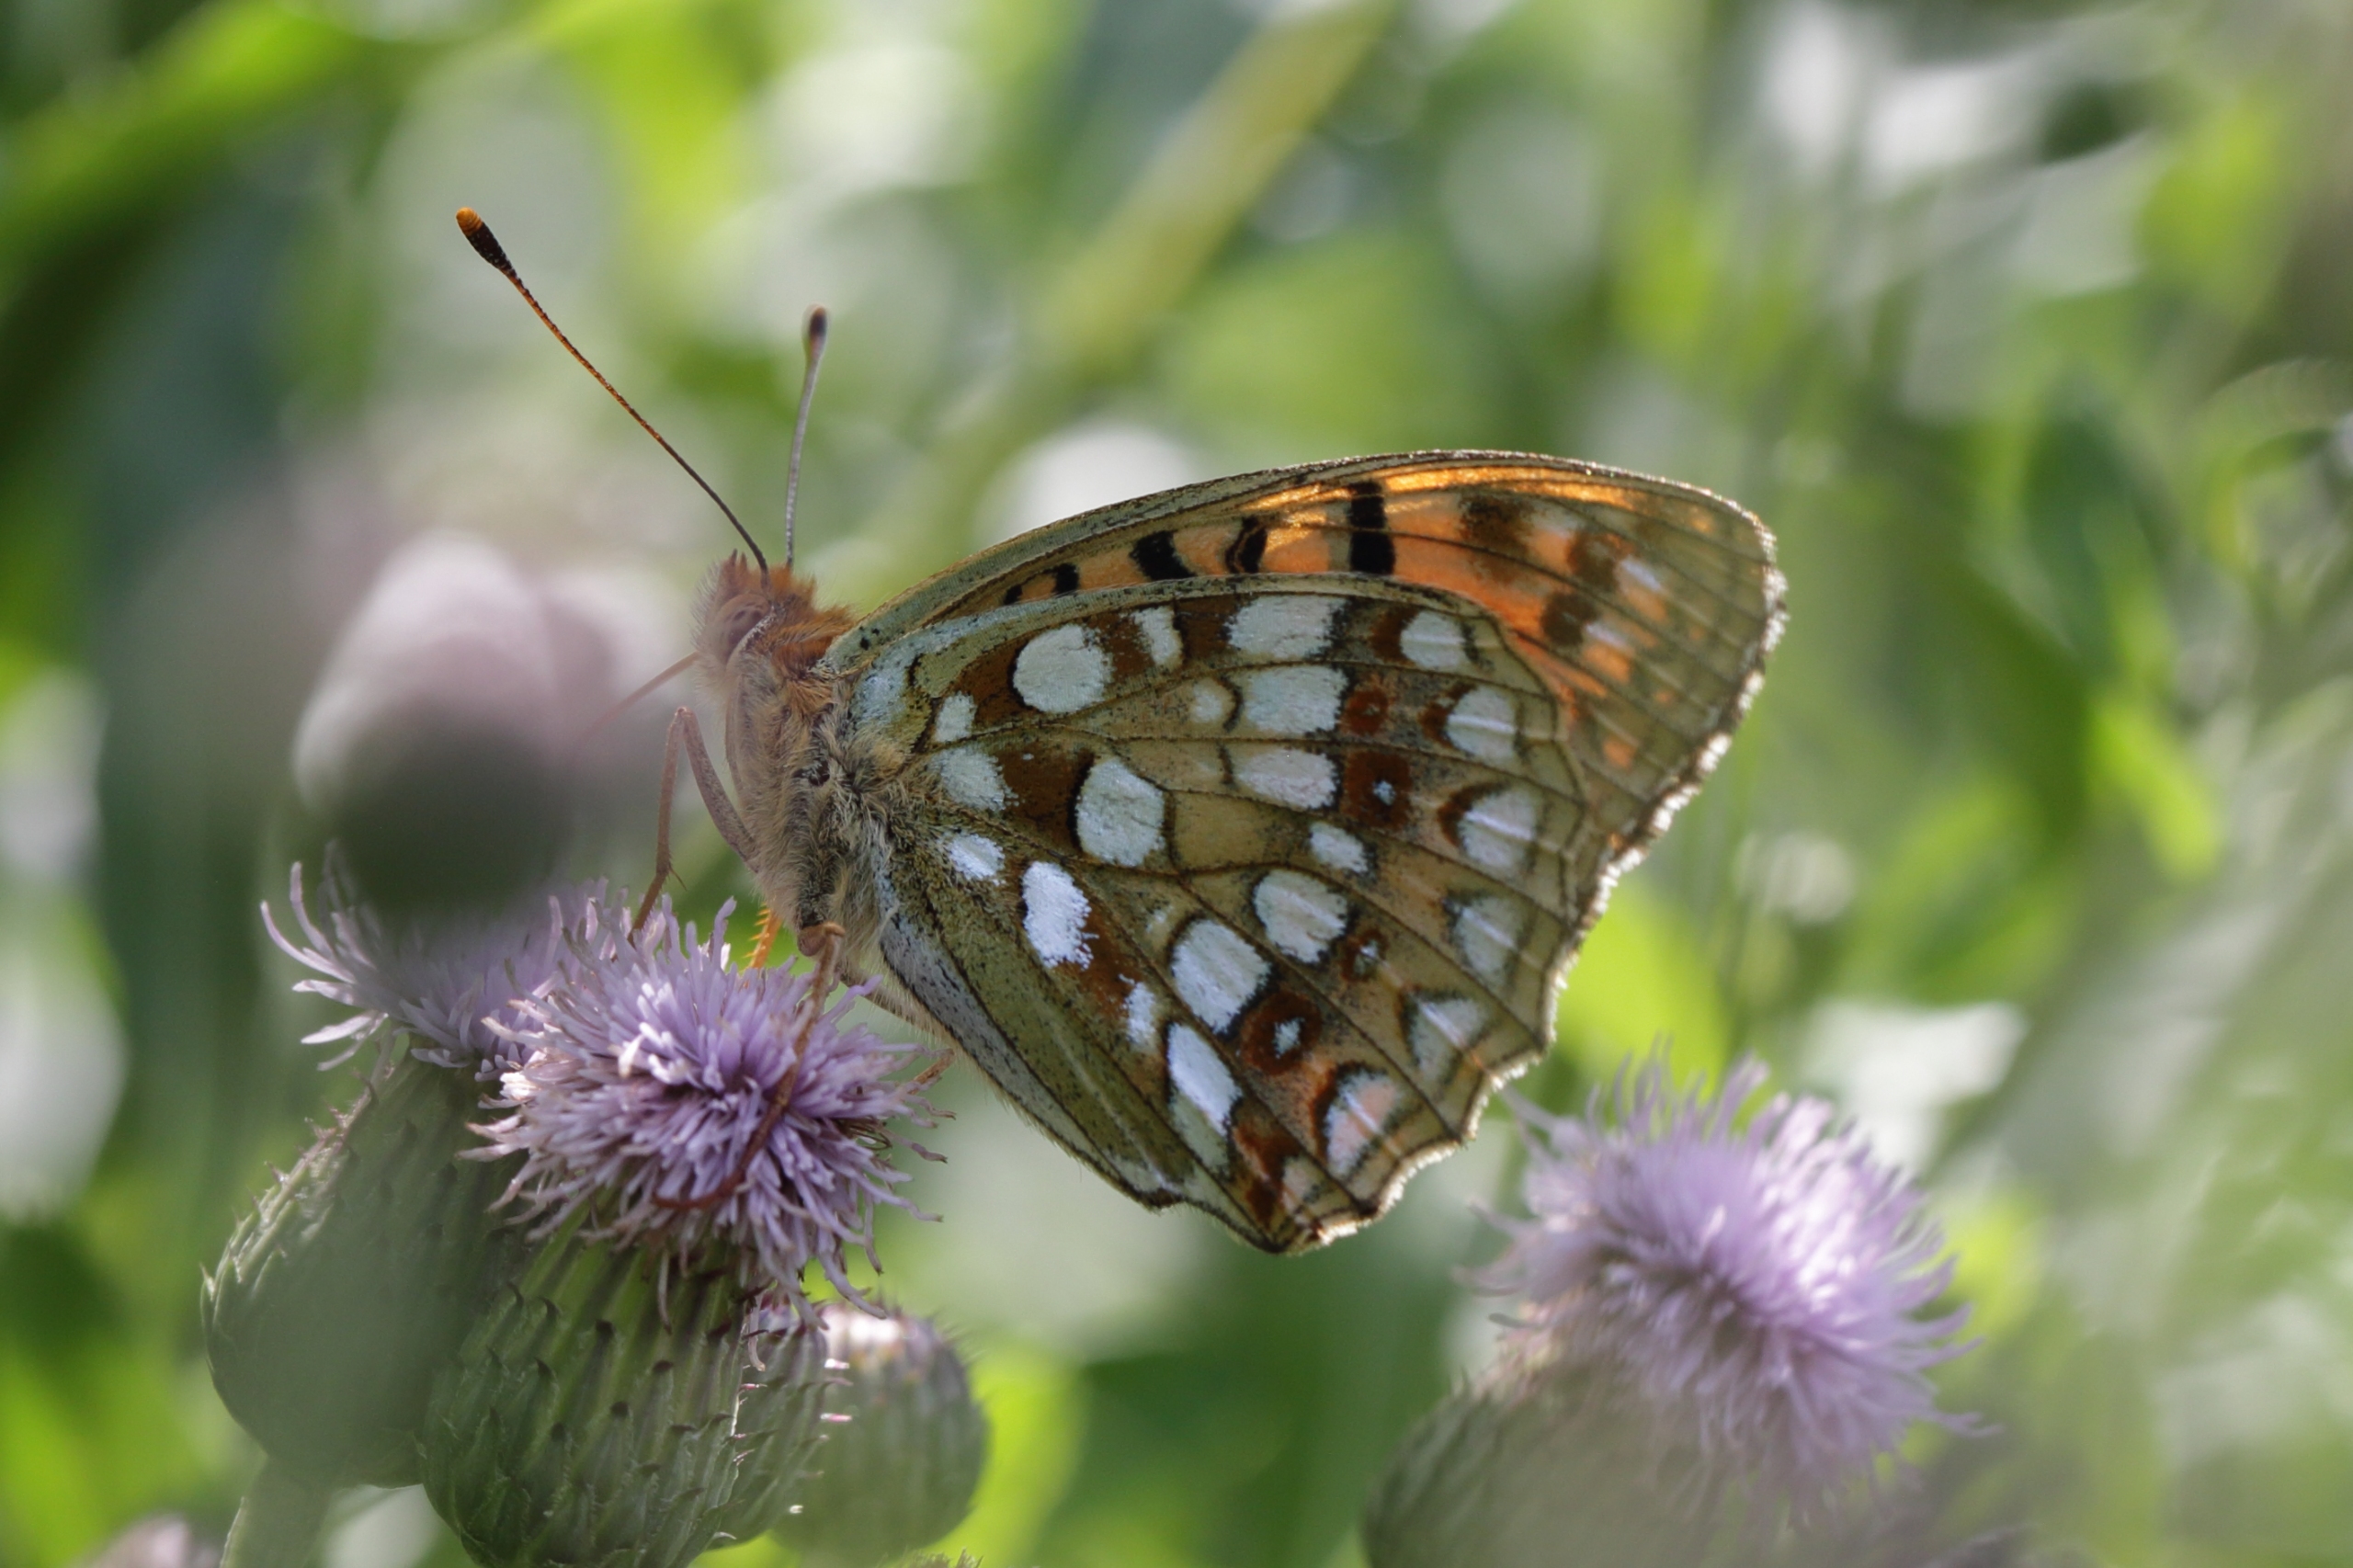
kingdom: Animalia
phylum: Arthropoda
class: Insecta
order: Lepidoptera
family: Nymphalidae
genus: Fabriciana
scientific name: Fabriciana adippe
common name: Skovperlemorsommerfugl
